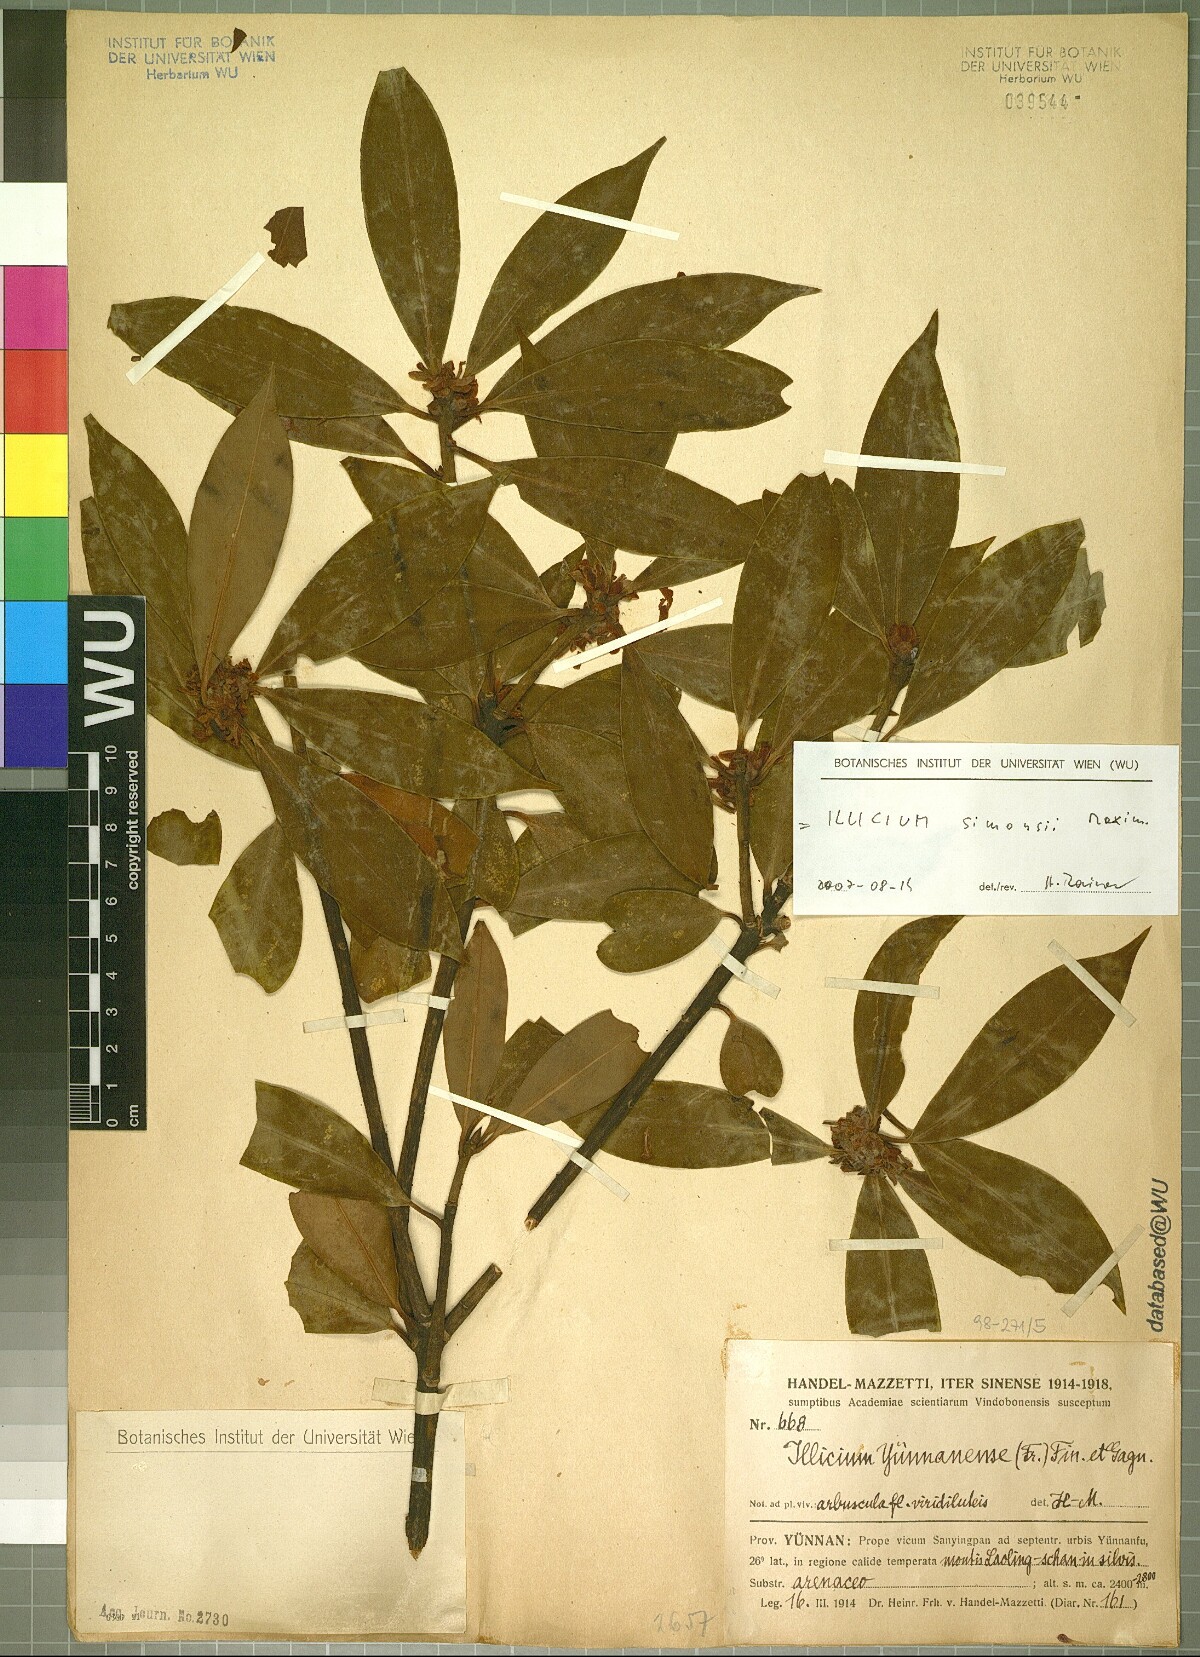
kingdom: Plantae
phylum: Tracheophyta
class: Magnoliopsida
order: Austrobaileyales
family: Schisandraceae
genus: Illicium
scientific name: Illicium simonsii
